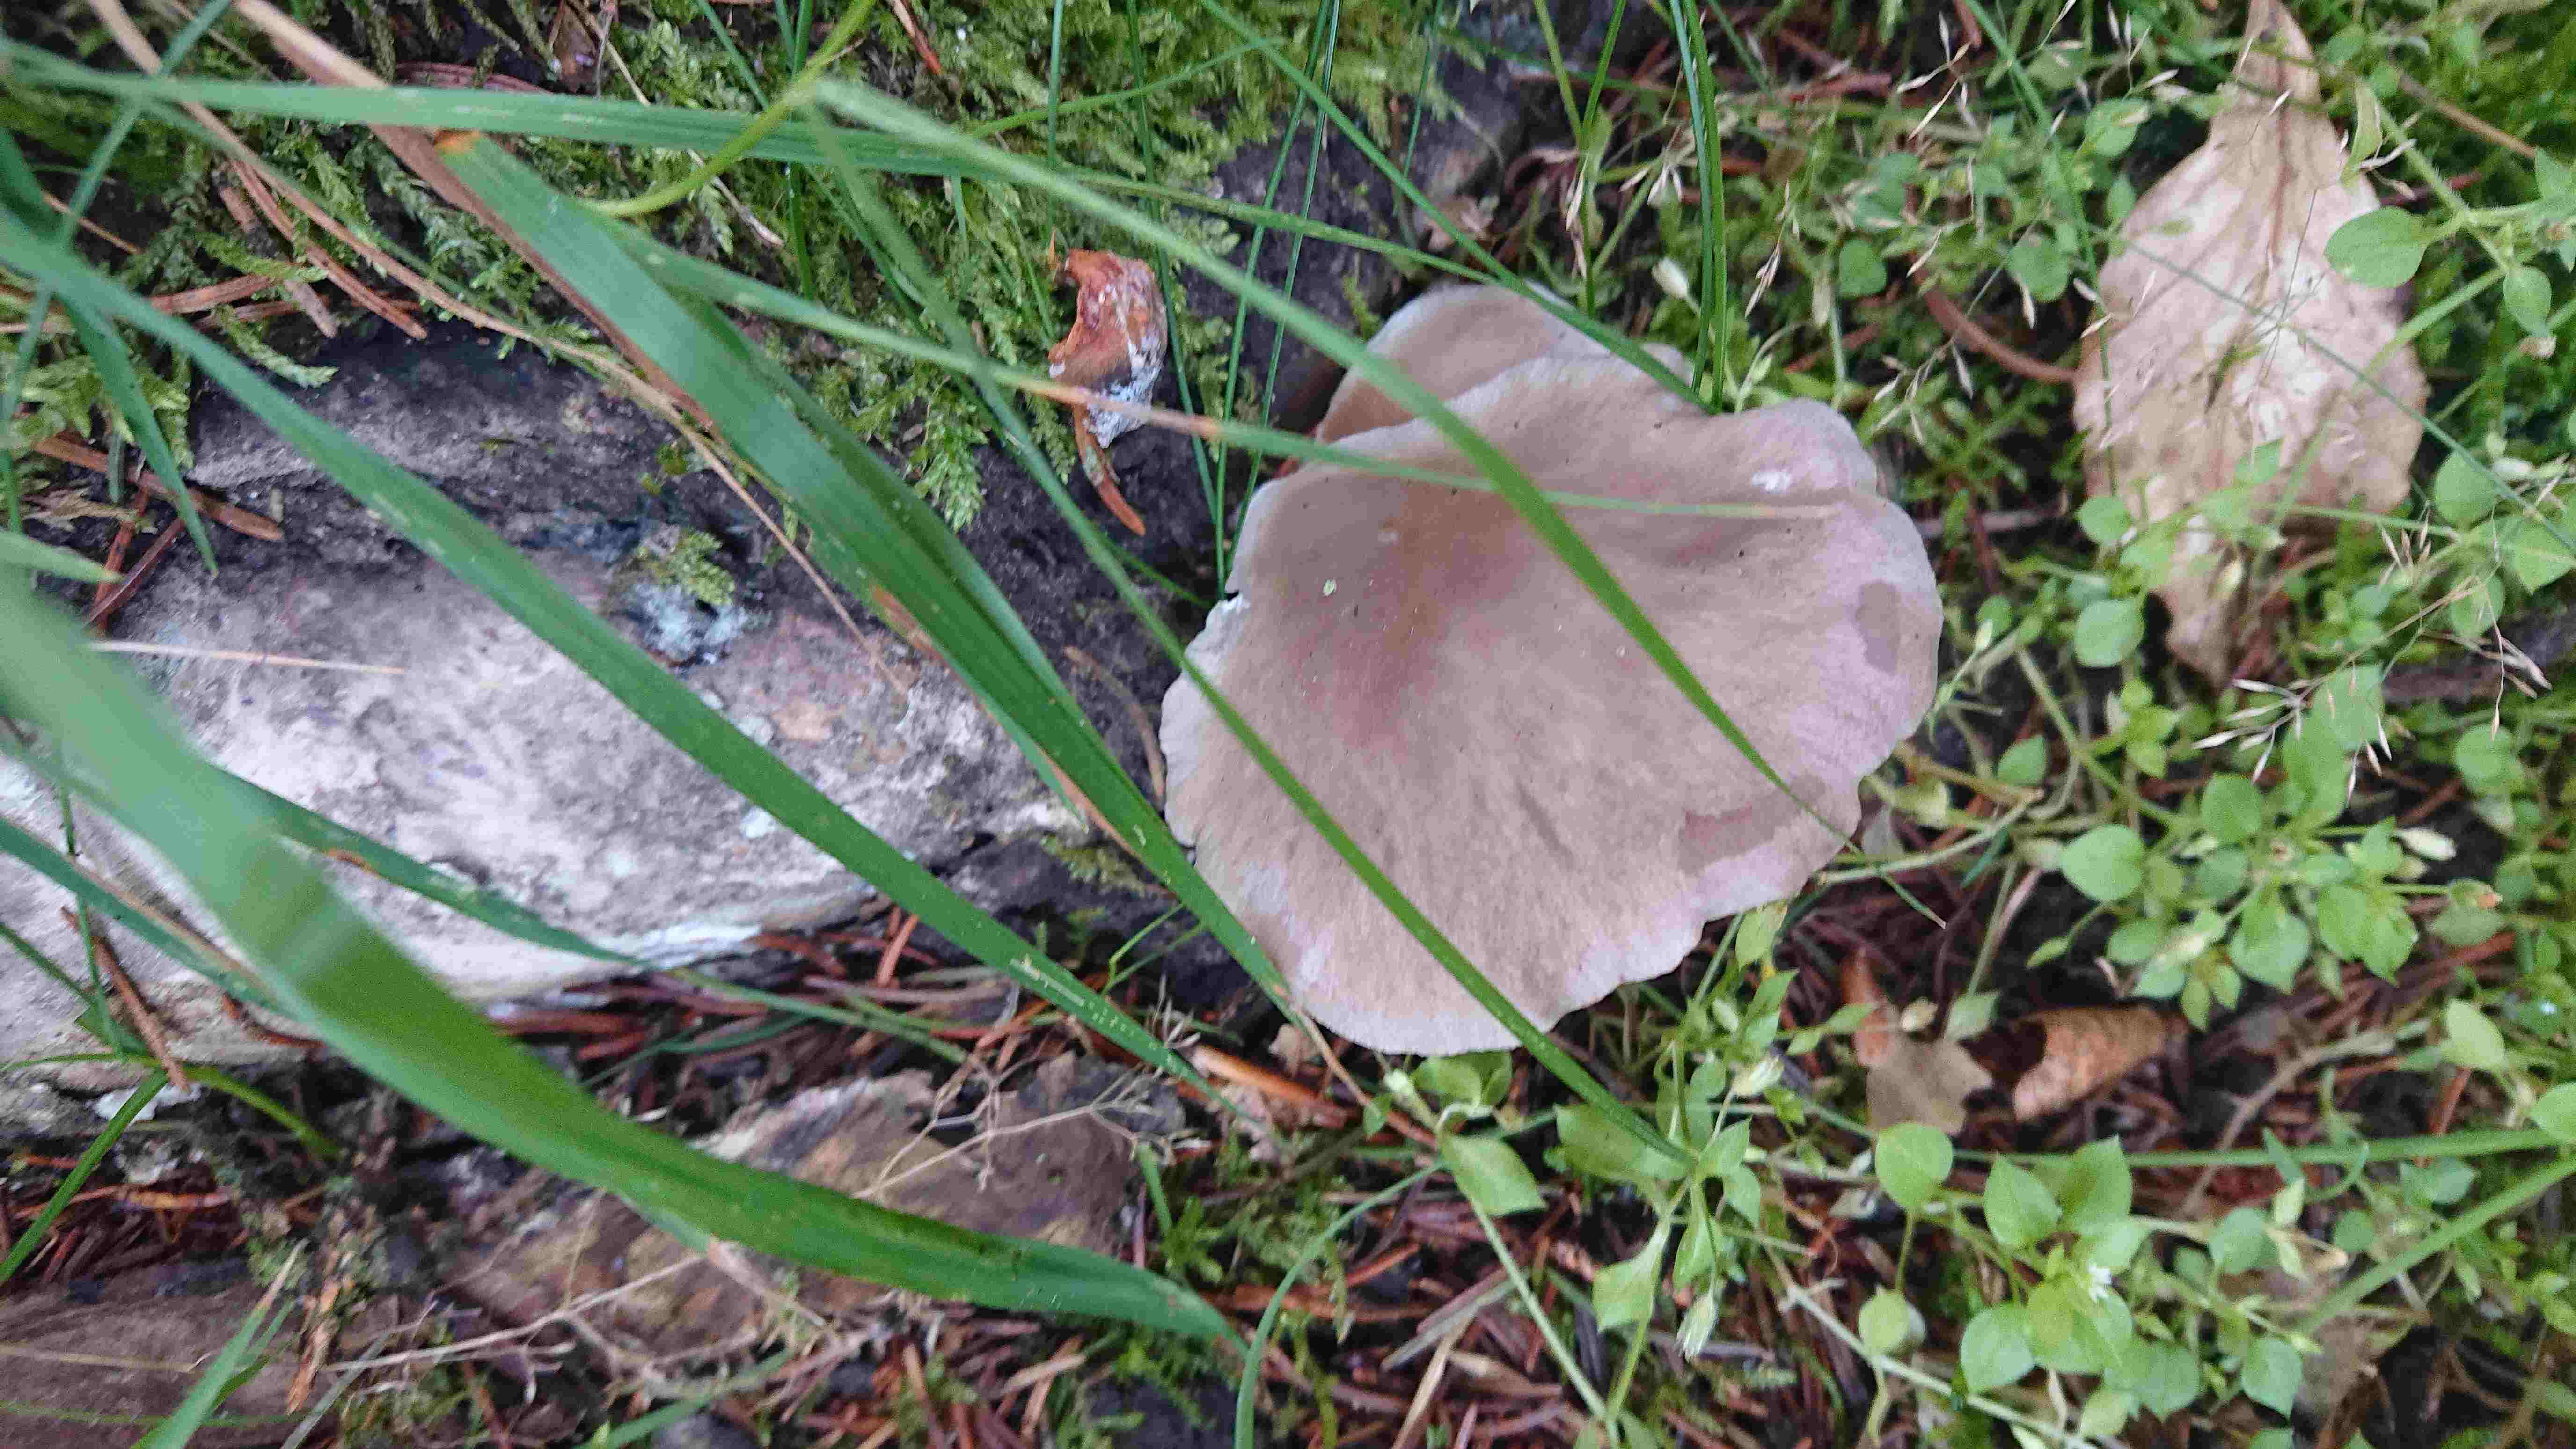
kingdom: Fungi
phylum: Basidiomycota
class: Agaricomycetes
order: Agaricales
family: Pleurotaceae
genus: Pleurotus
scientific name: Pleurotus
